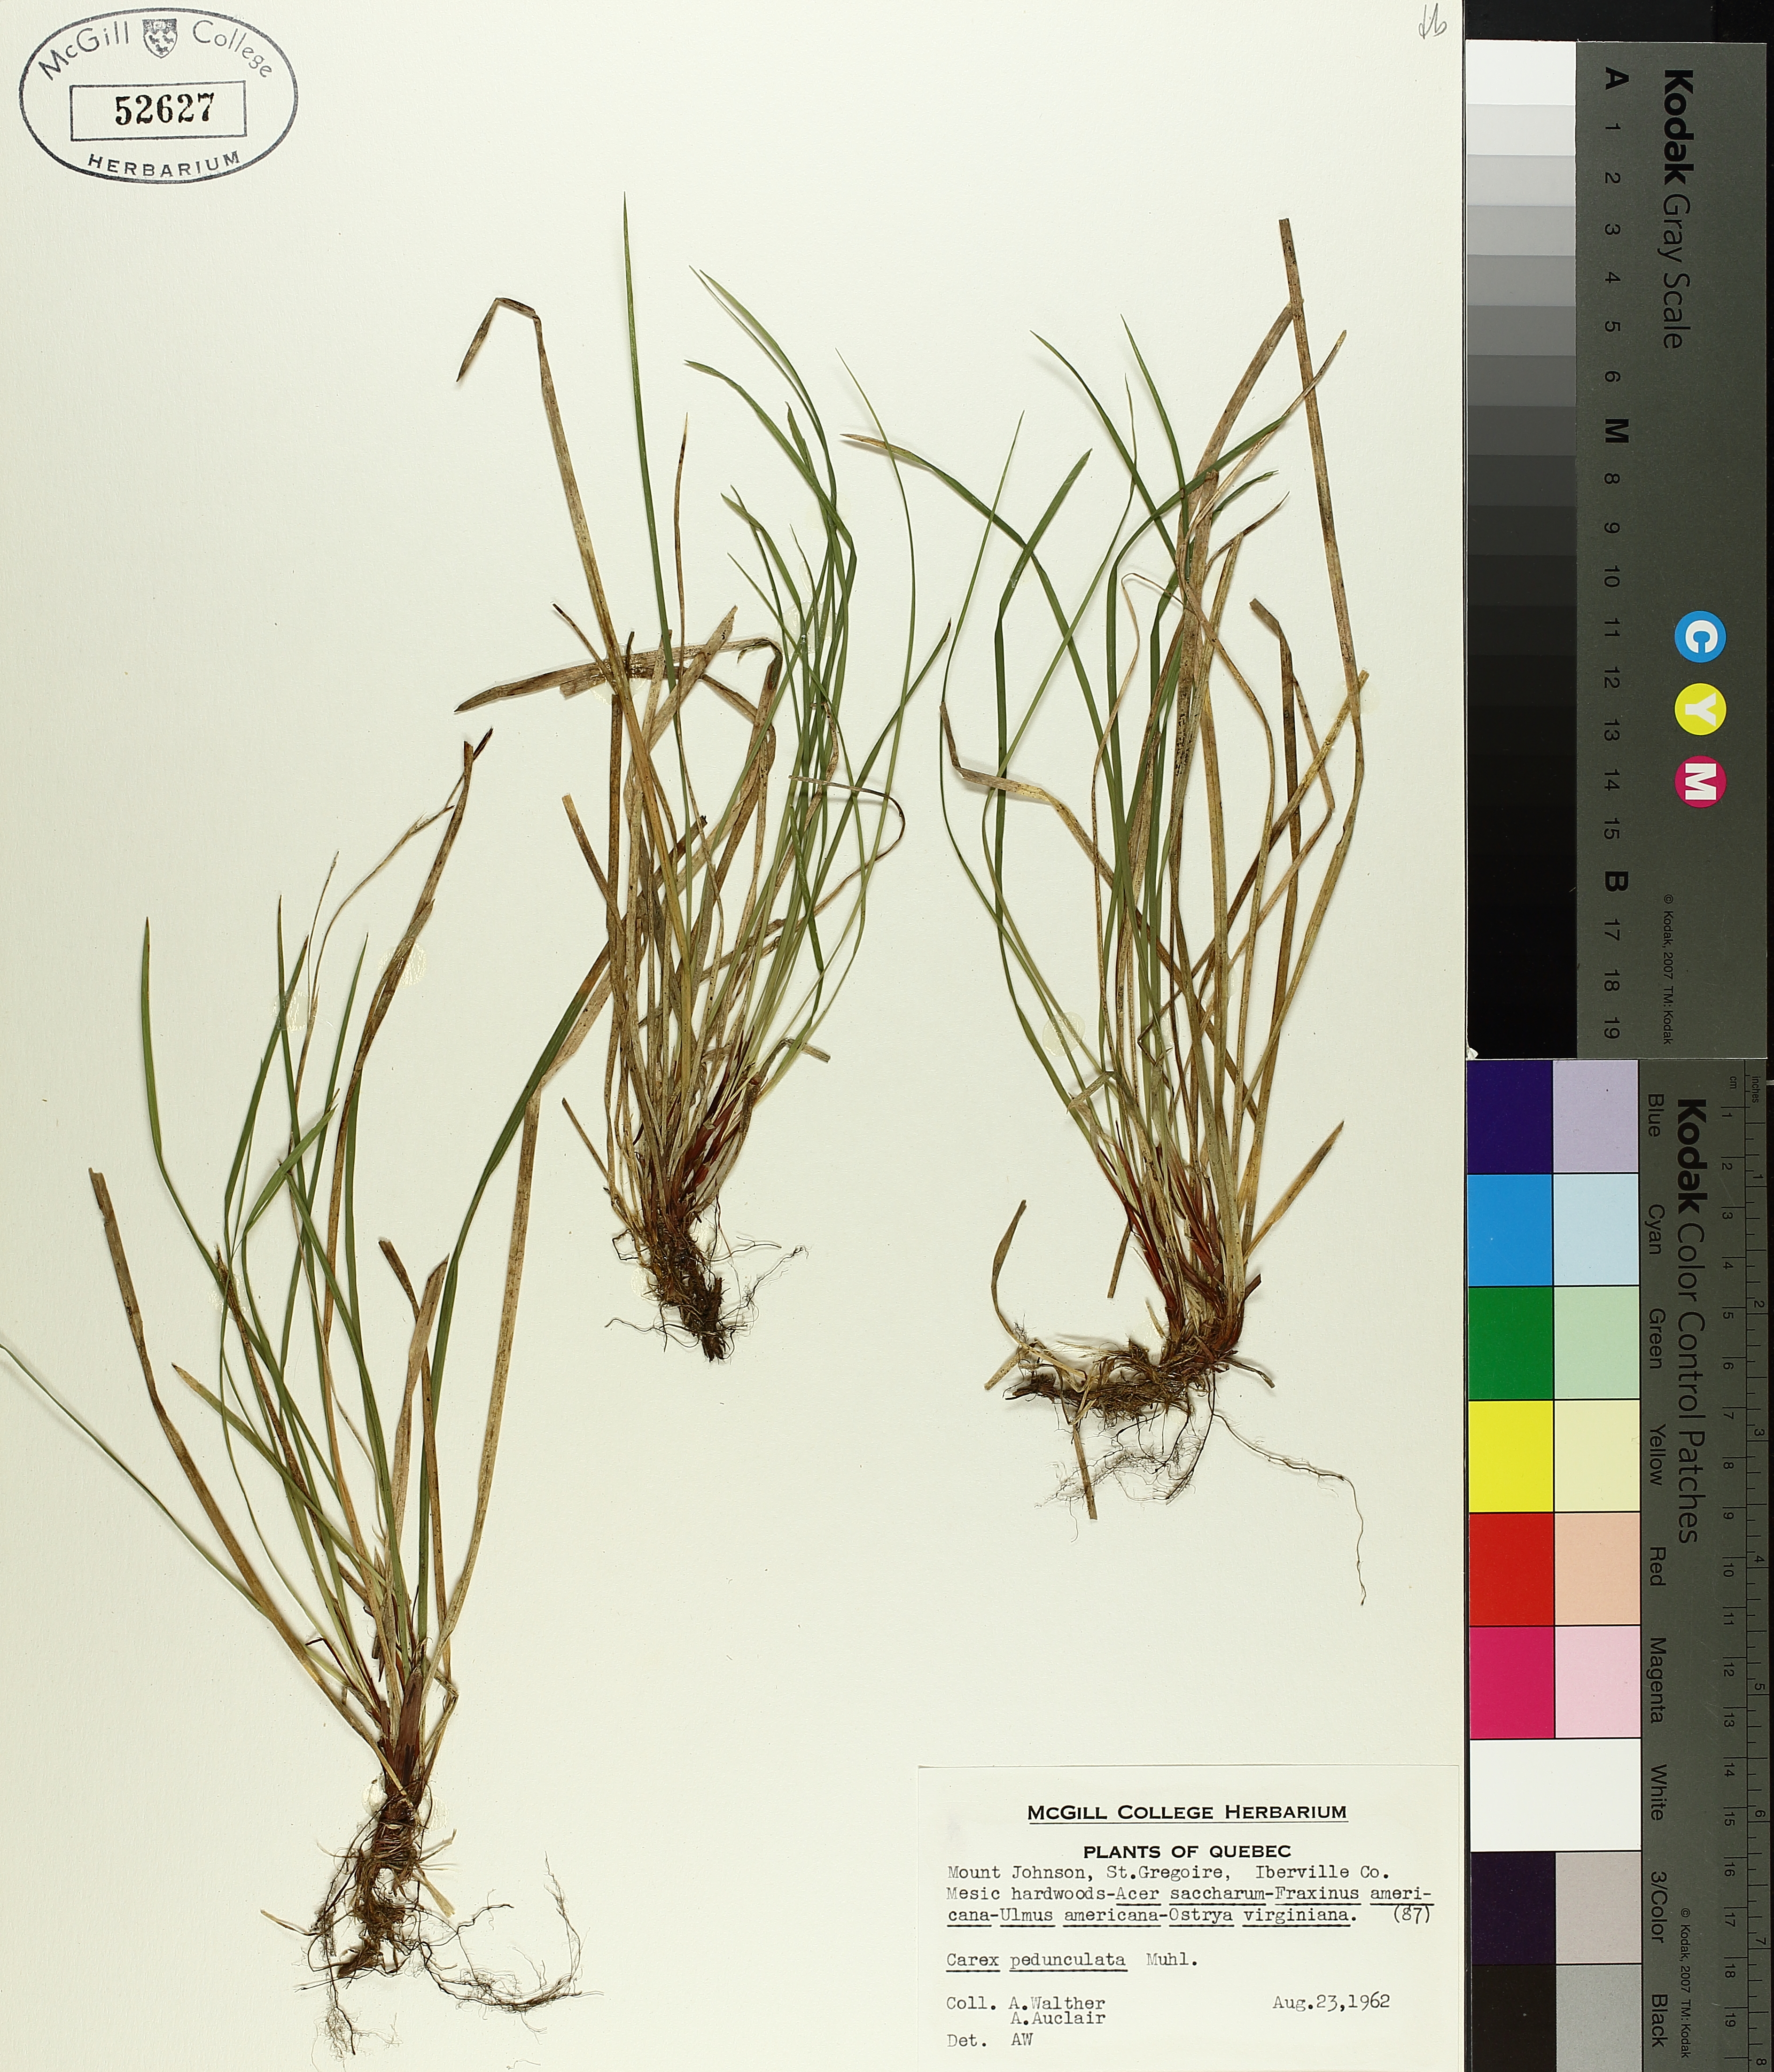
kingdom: Plantae
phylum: Tracheophyta
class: Liliopsida
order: Poales
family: Cyperaceae
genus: Carex
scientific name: Carex pedunculata
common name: Pedunculate sedge
